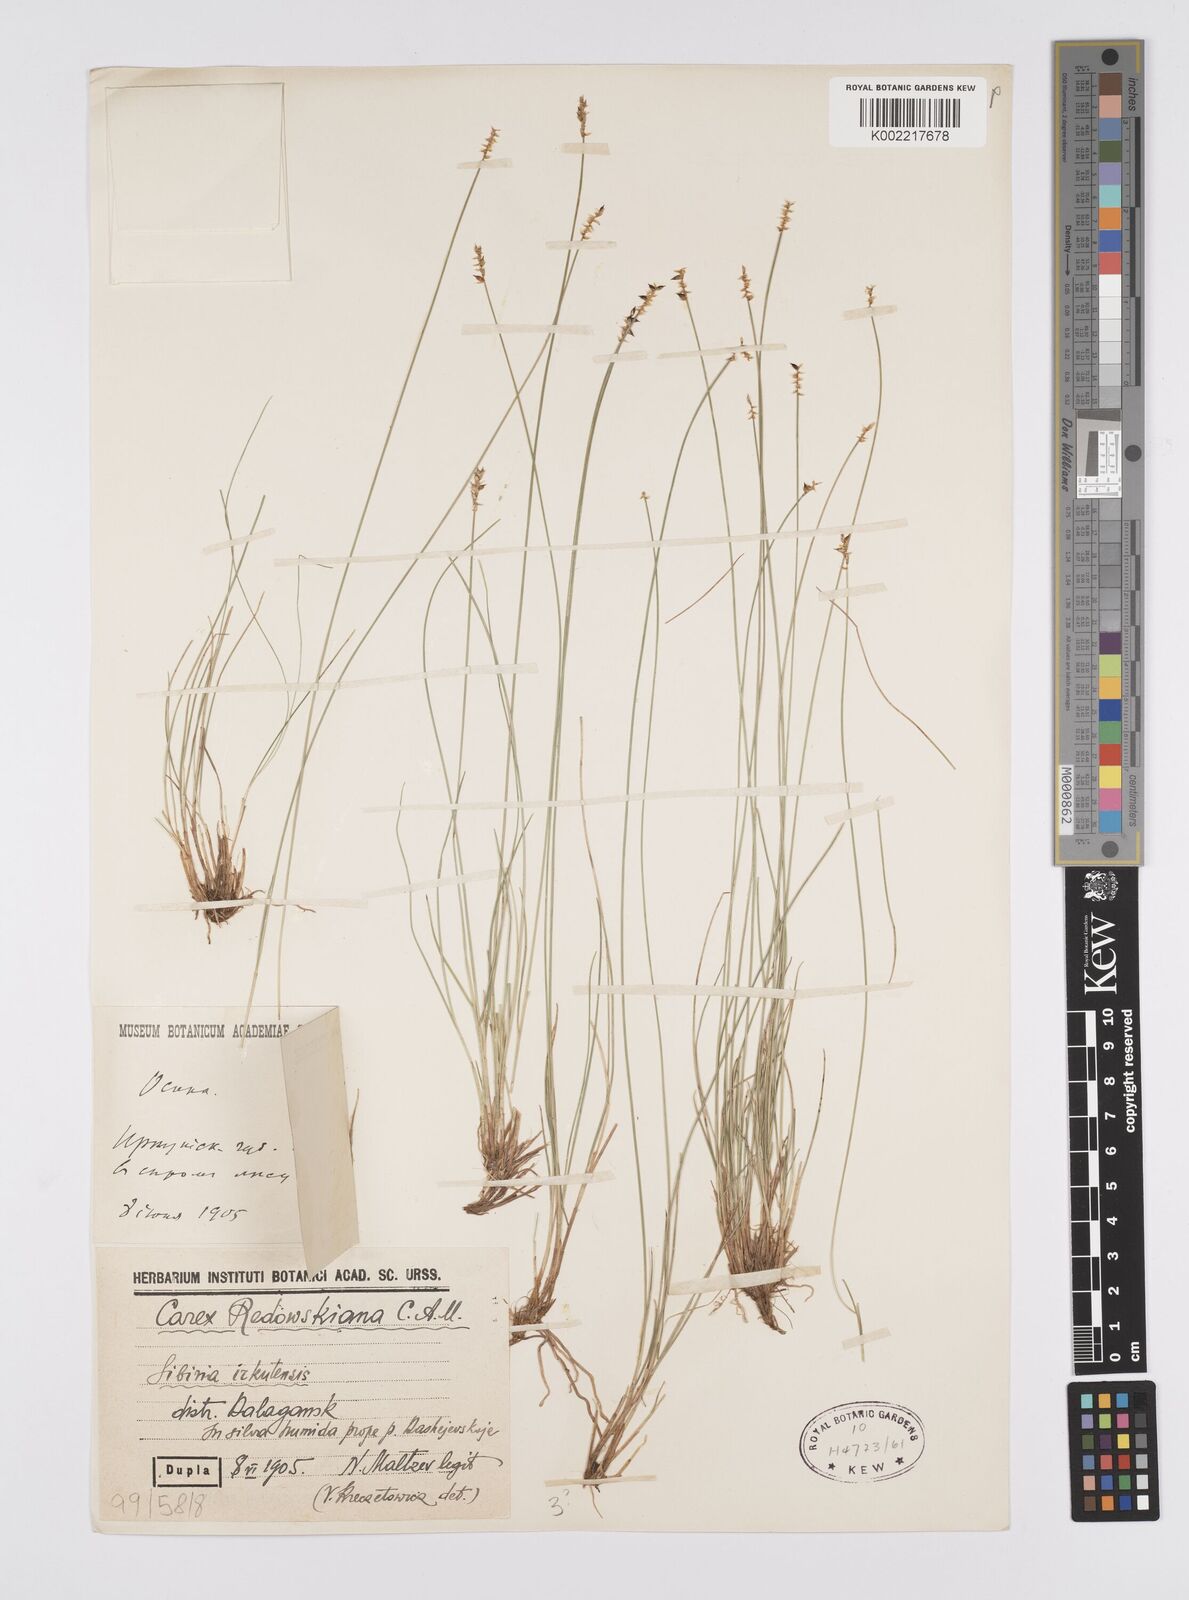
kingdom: Plantae
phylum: Tracheophyta
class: Liliopsida
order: Poales
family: Cyperaceae
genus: Carex
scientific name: Carex parallela
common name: Parallel sedge
